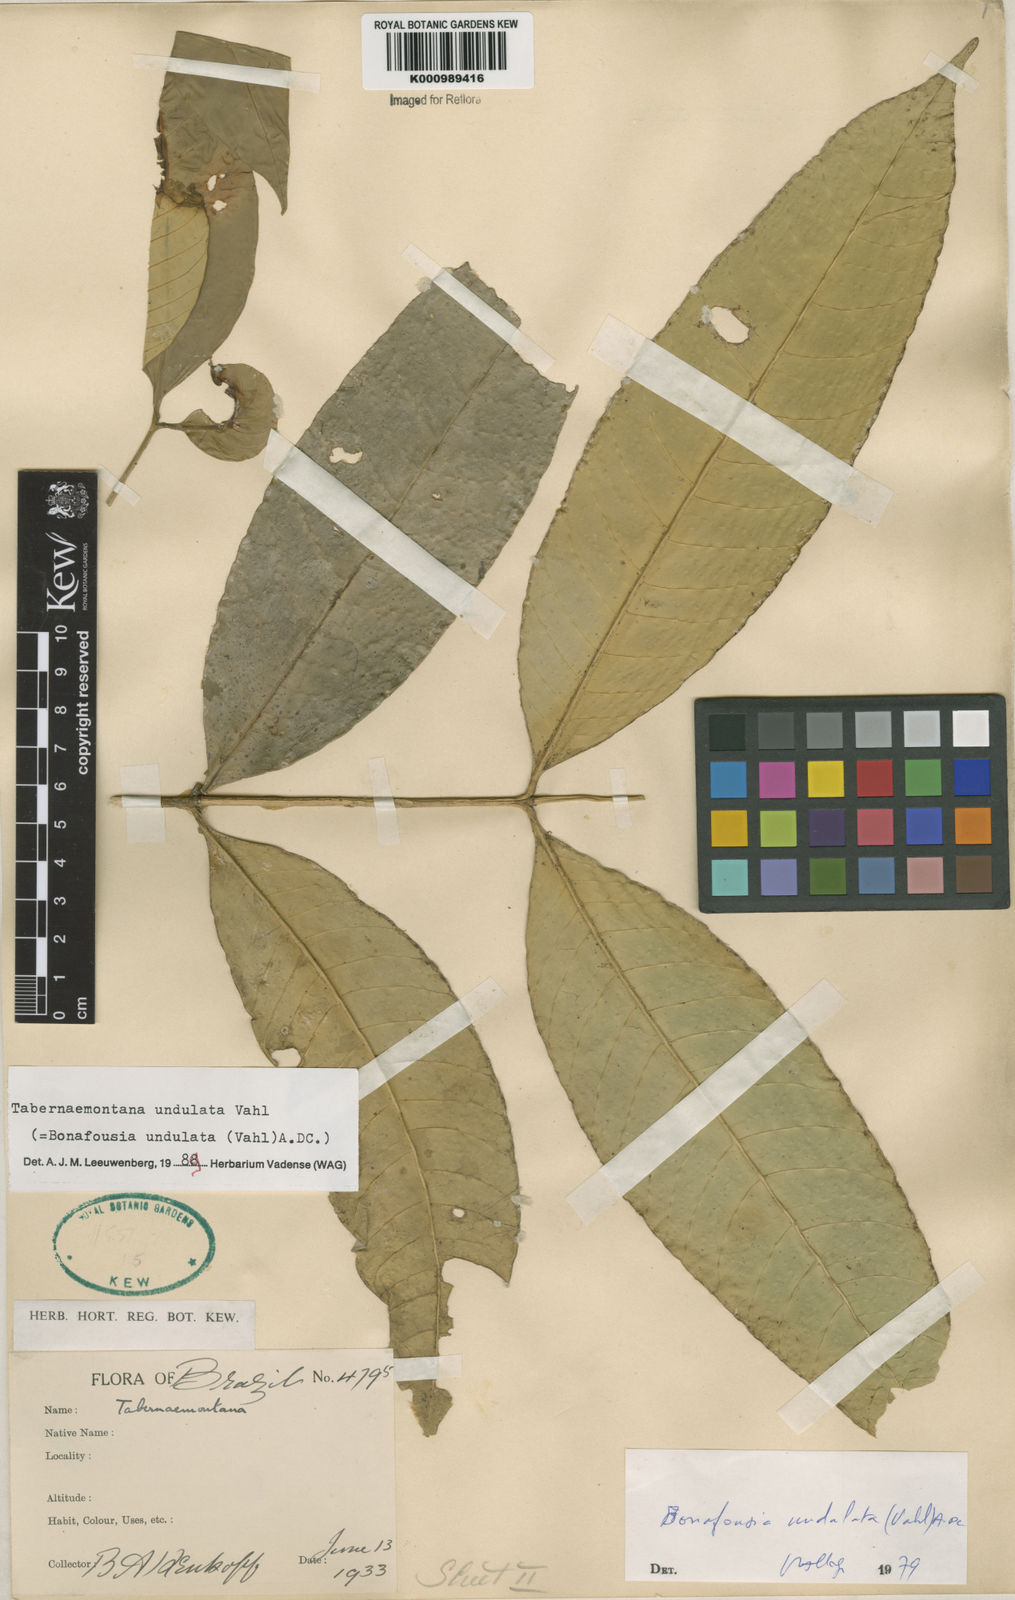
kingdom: Plantae
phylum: Tracheophyta
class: Magnoliopsida
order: Gentianales
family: Apocynaceae
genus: Tabernaemontana
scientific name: Tabernaemontana undulata
